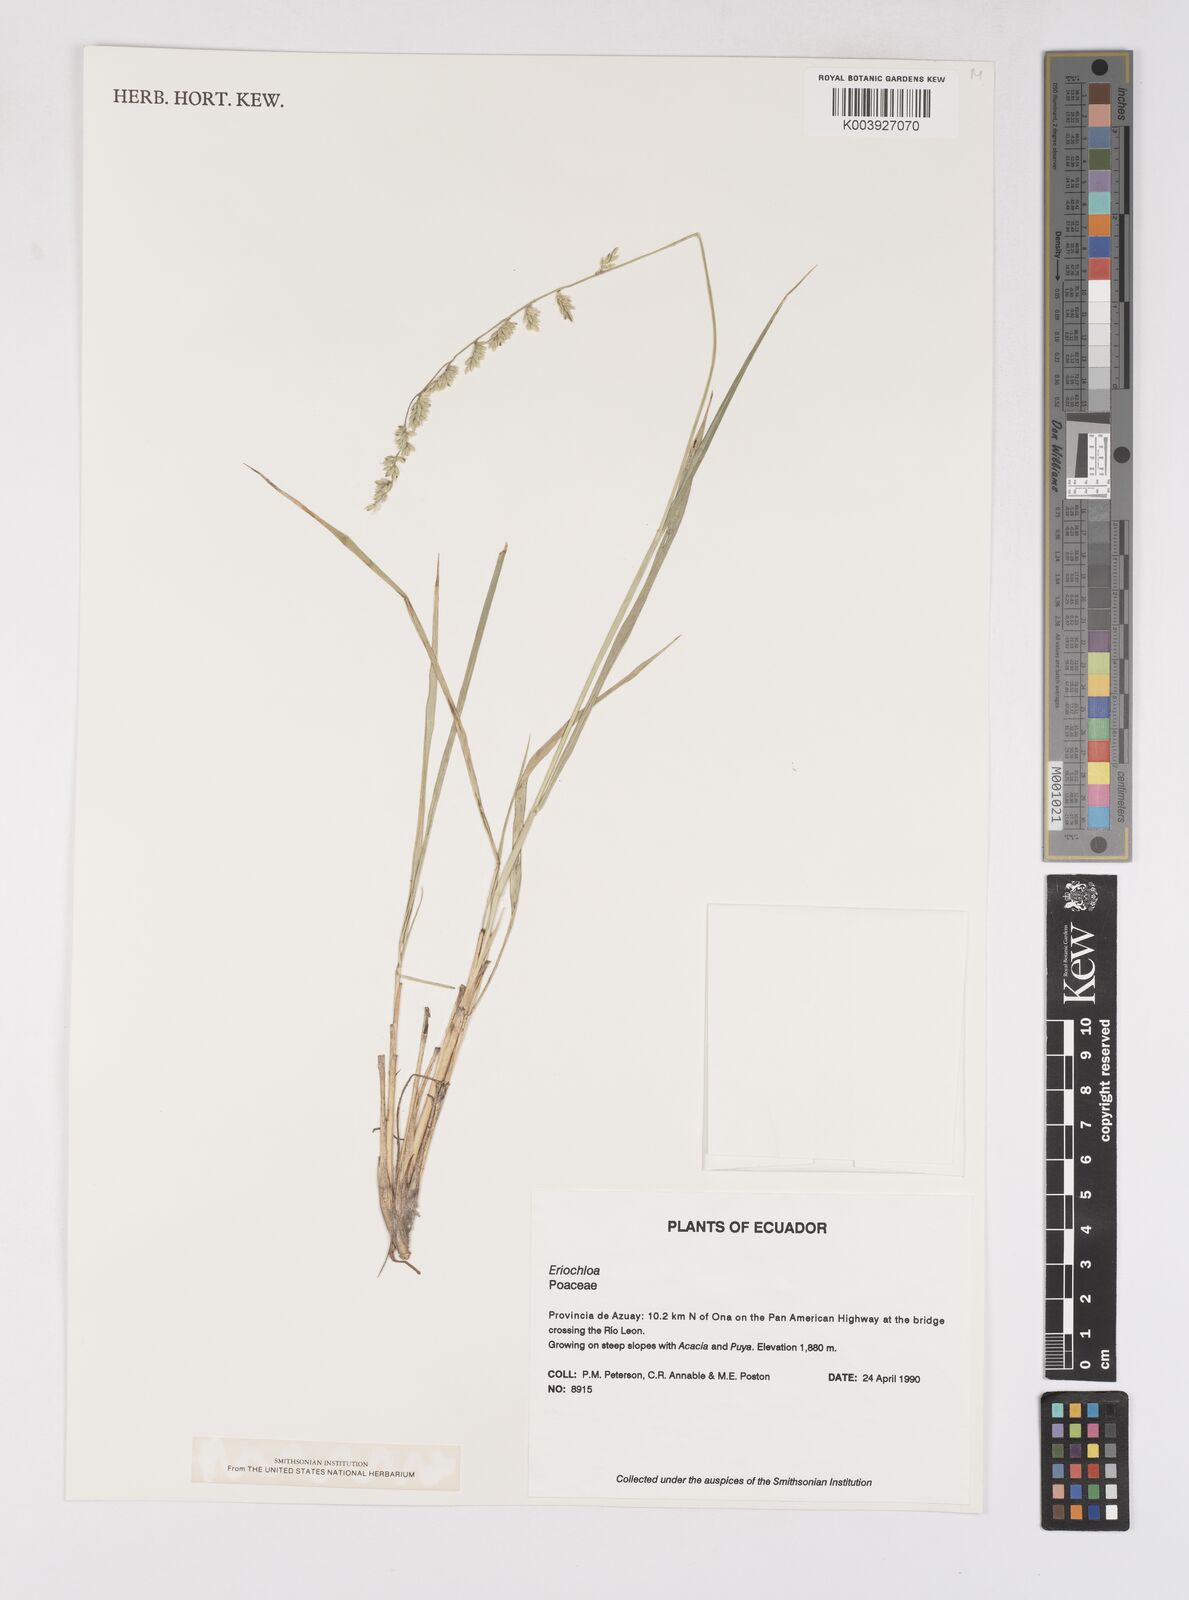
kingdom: Plantae
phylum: Tracheophyta
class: Liliopsida
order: Poales
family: Poaceae
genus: Eriochloa
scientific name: Eriochloa weberbaueri
